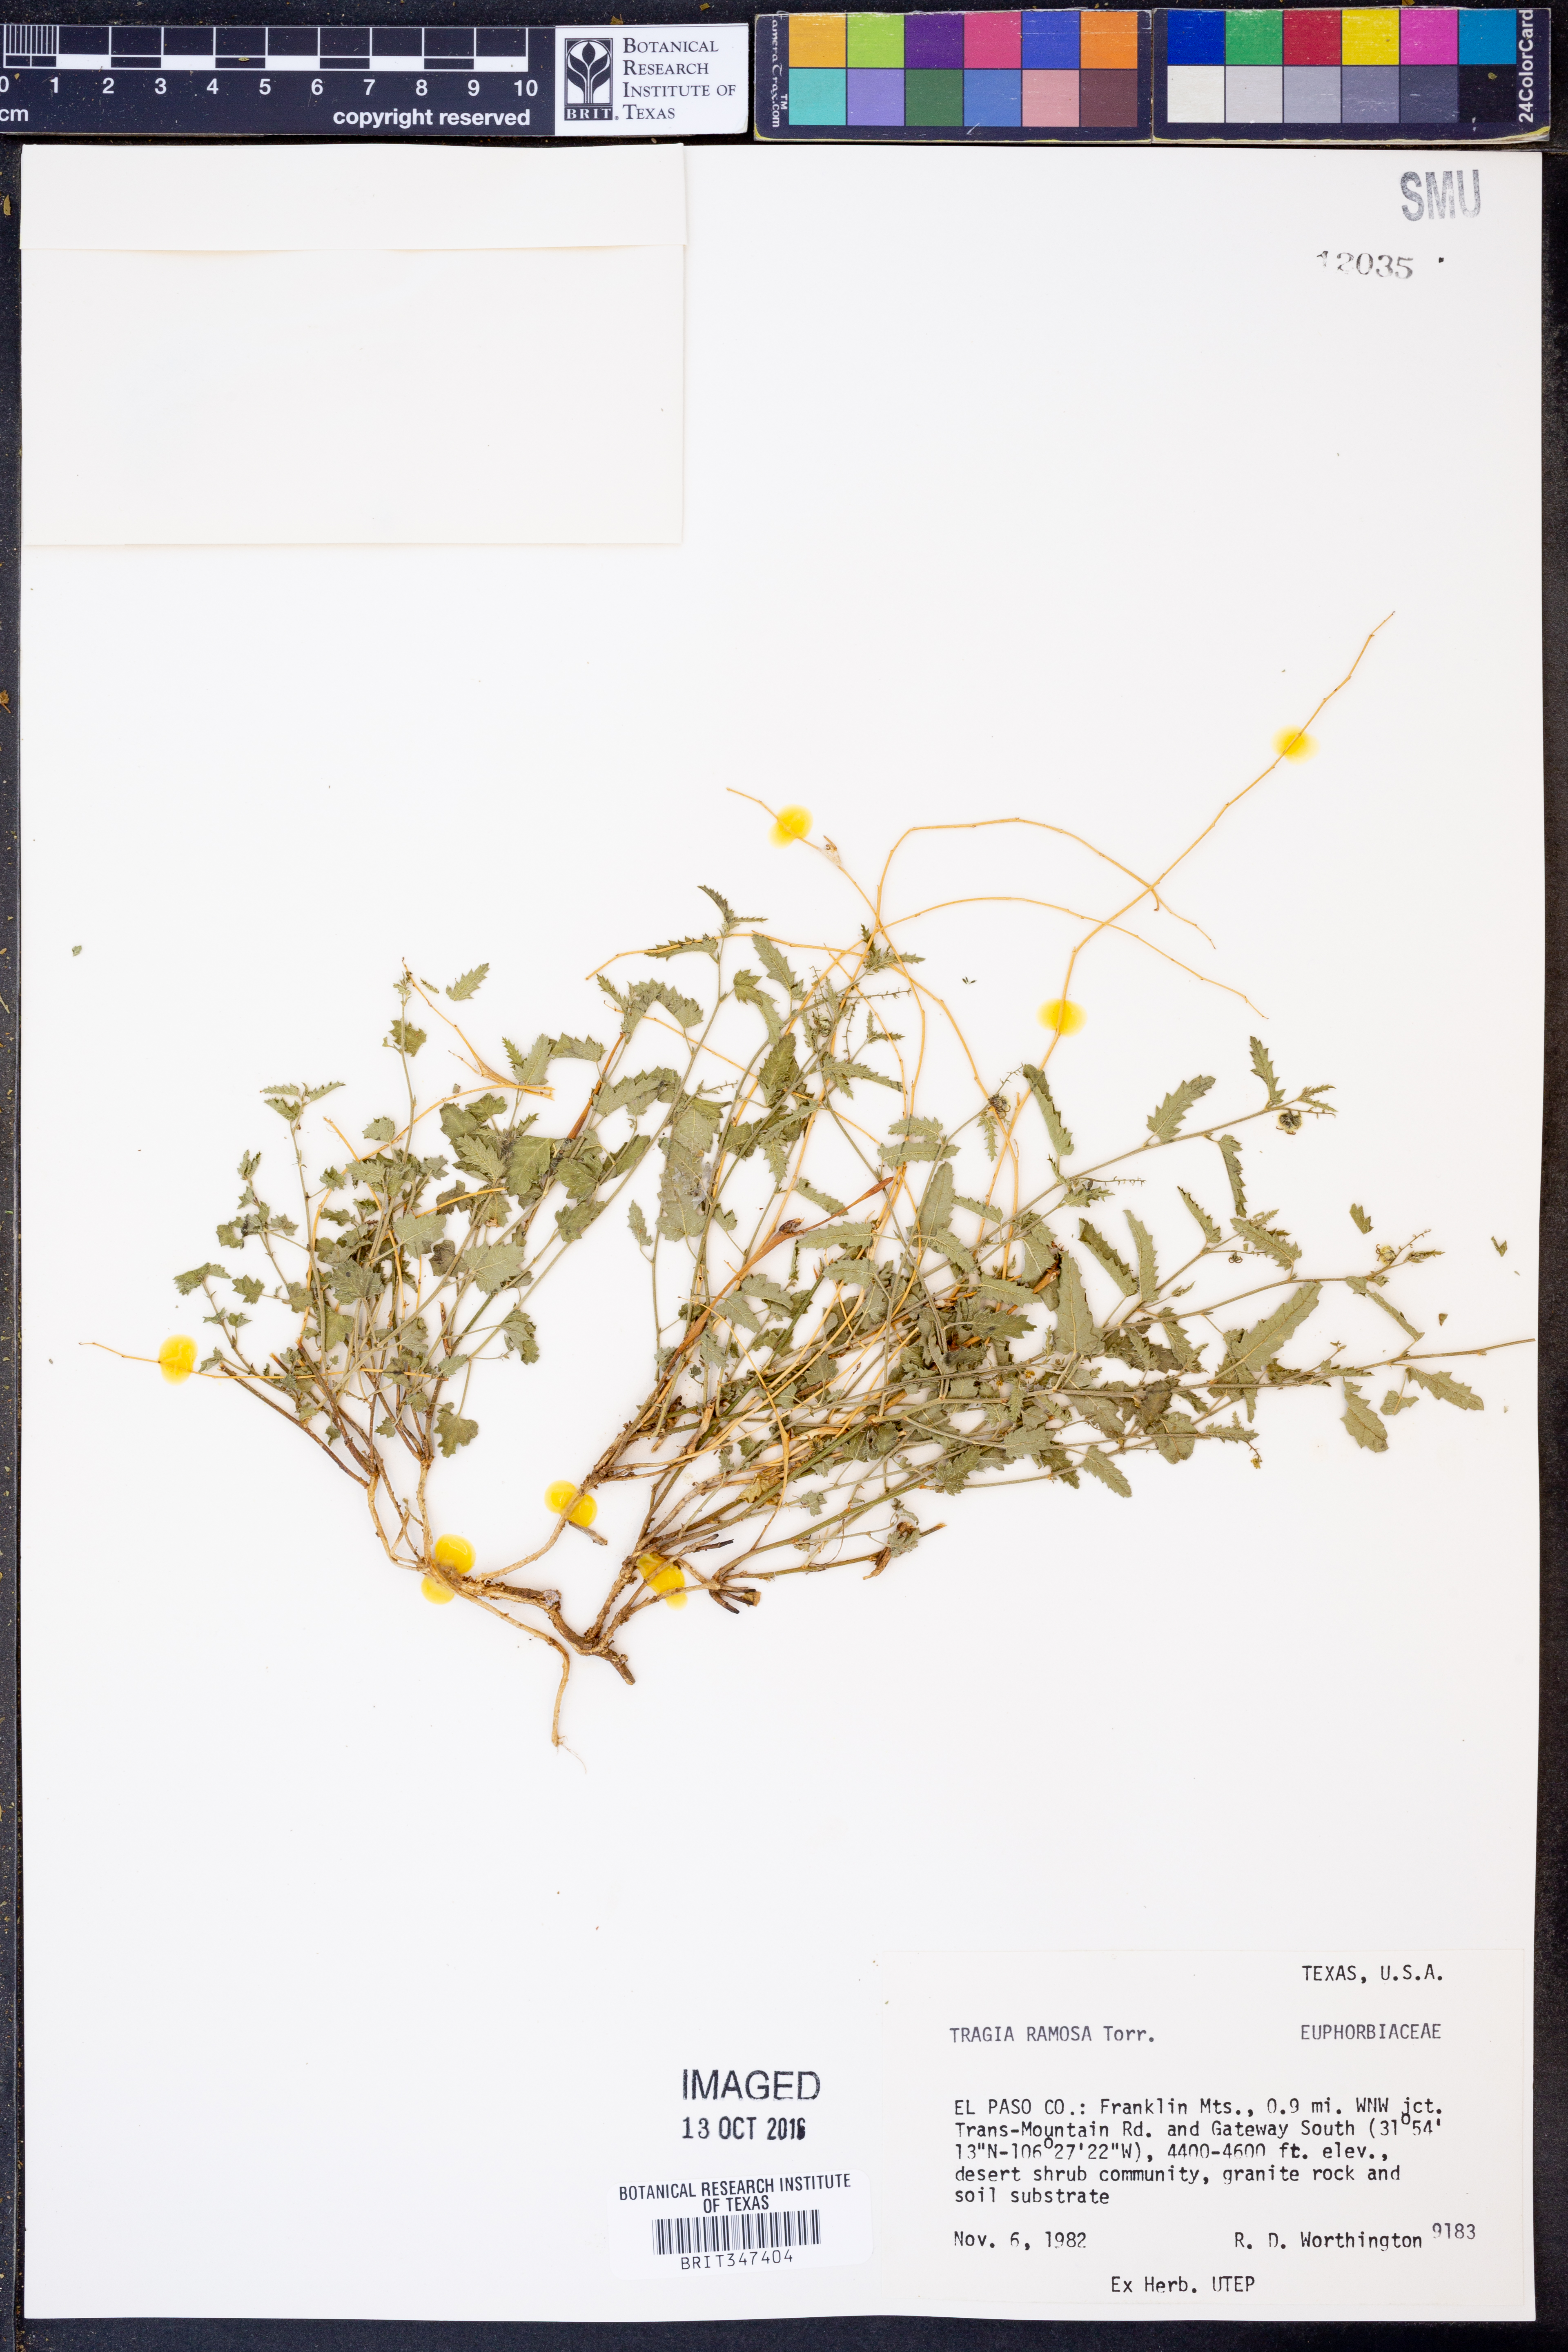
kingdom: Plantae
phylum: Tracheophyta
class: Magnoliopsida
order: Malpighiales
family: Euphorbiaceae
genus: Tragia
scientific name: Tragia ramosa
